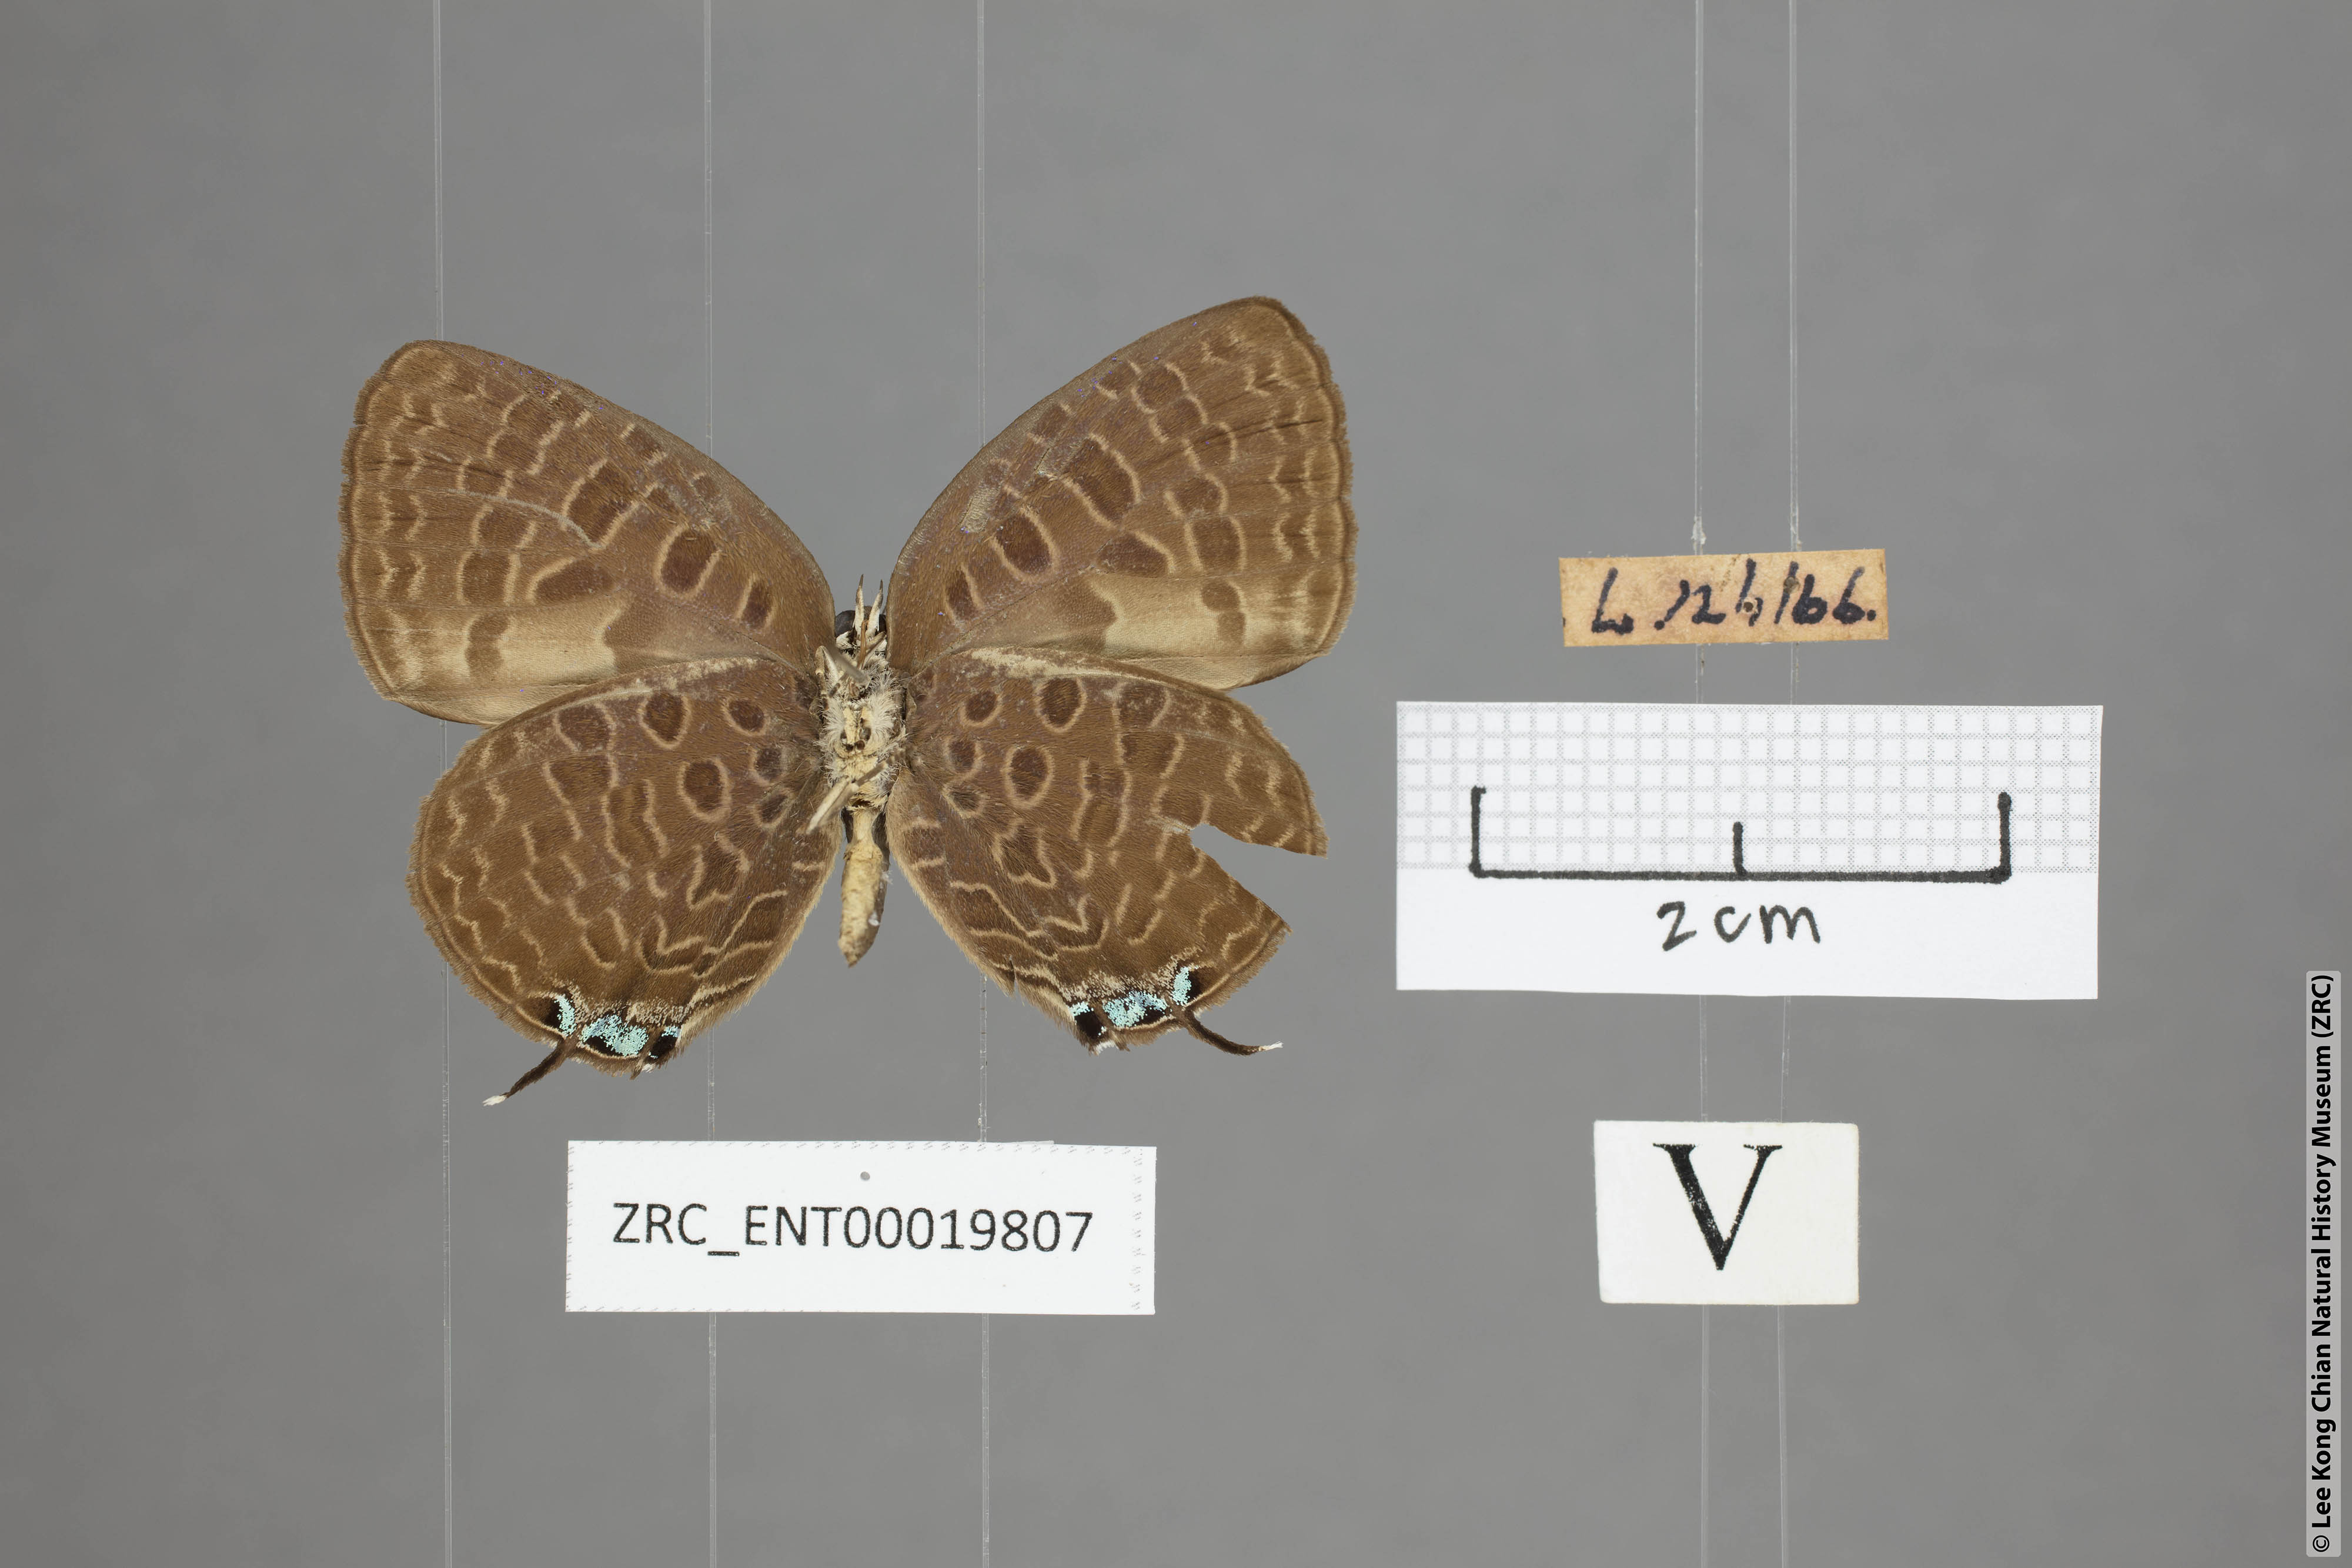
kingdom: Animalia
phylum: Arthropoda
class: Insecta
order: Lepidoptera
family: Lycaenidae
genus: Arhopala
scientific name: Arhopala pseudomuta
